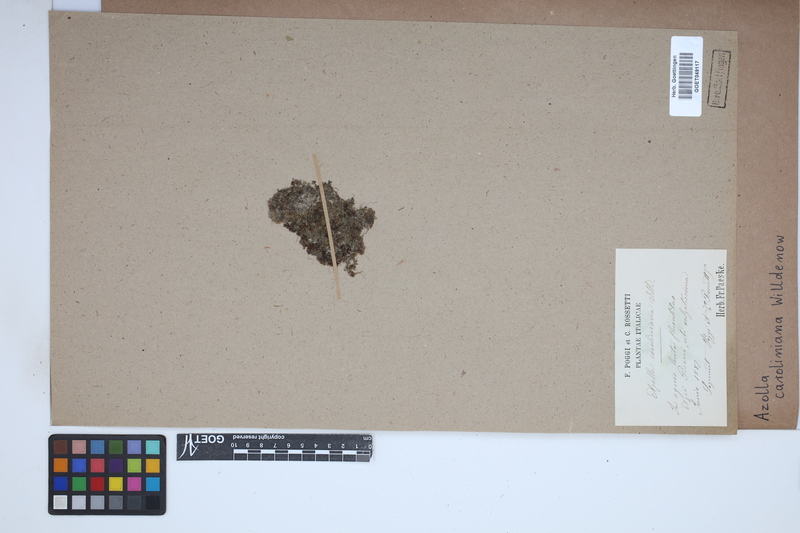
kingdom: Plantae
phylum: Tracheophyta
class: Polypodiopsida
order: Salviniales
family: Salviniaceae
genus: Azolla
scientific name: Azolla caroliniana
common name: Carolina mosquitofern
